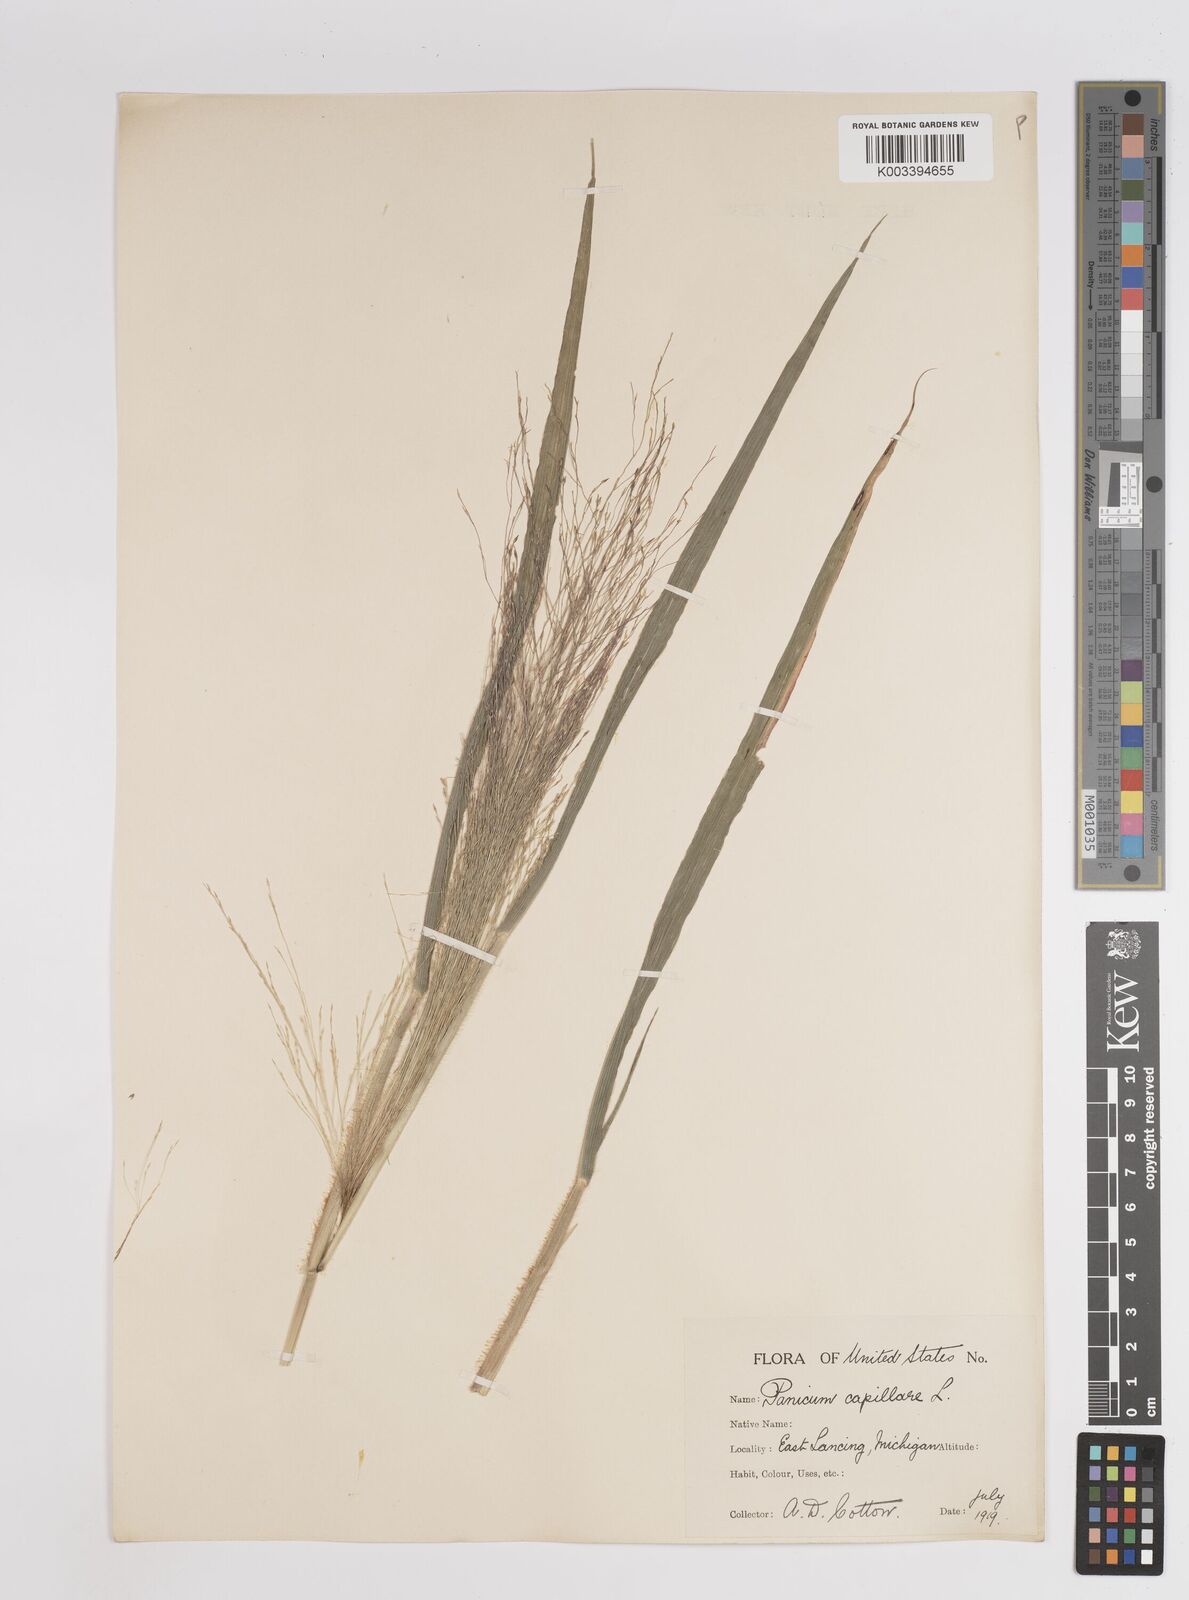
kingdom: Plantae
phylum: Tracheophyta
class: Liliopsida
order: Poales
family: Poaceae
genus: Panicum
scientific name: Panicum capillare
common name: Witch-grass
